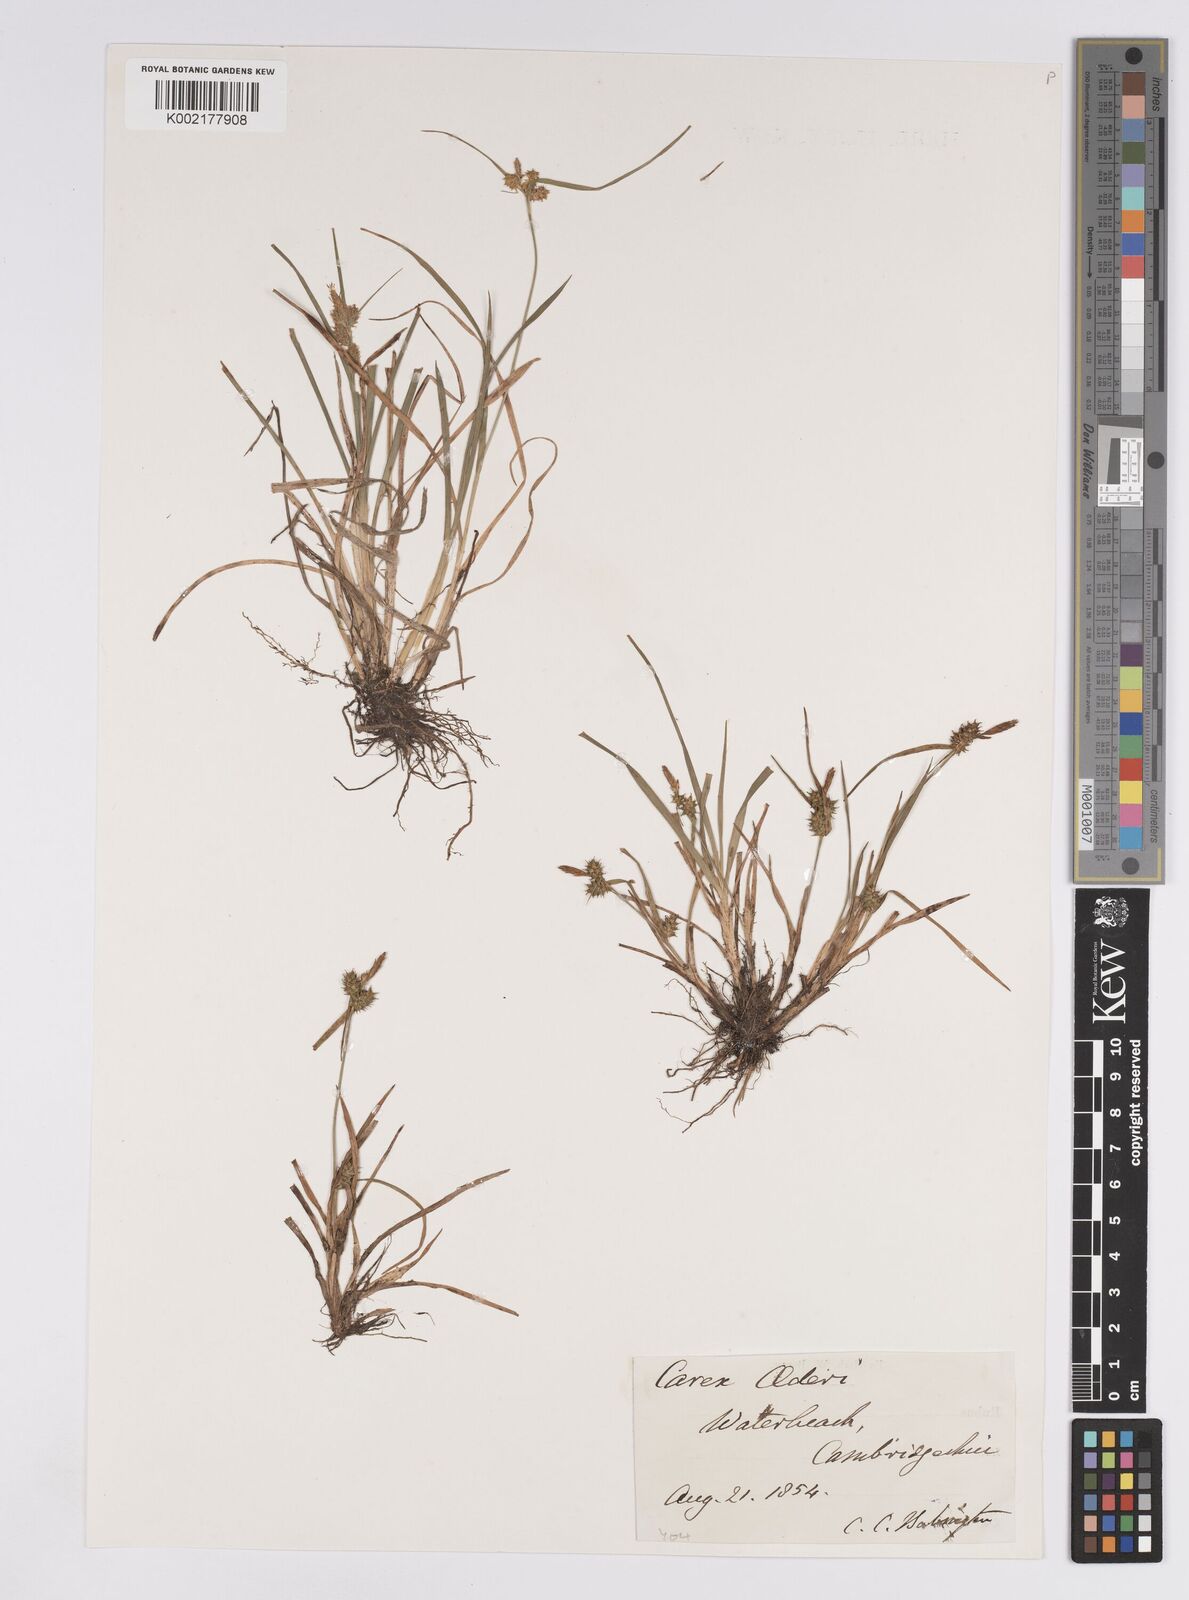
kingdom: Plantae
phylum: Tracheophyta
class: Liliopsida
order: Poales
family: Cyperaceae
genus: Carex
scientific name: Carex demissa
